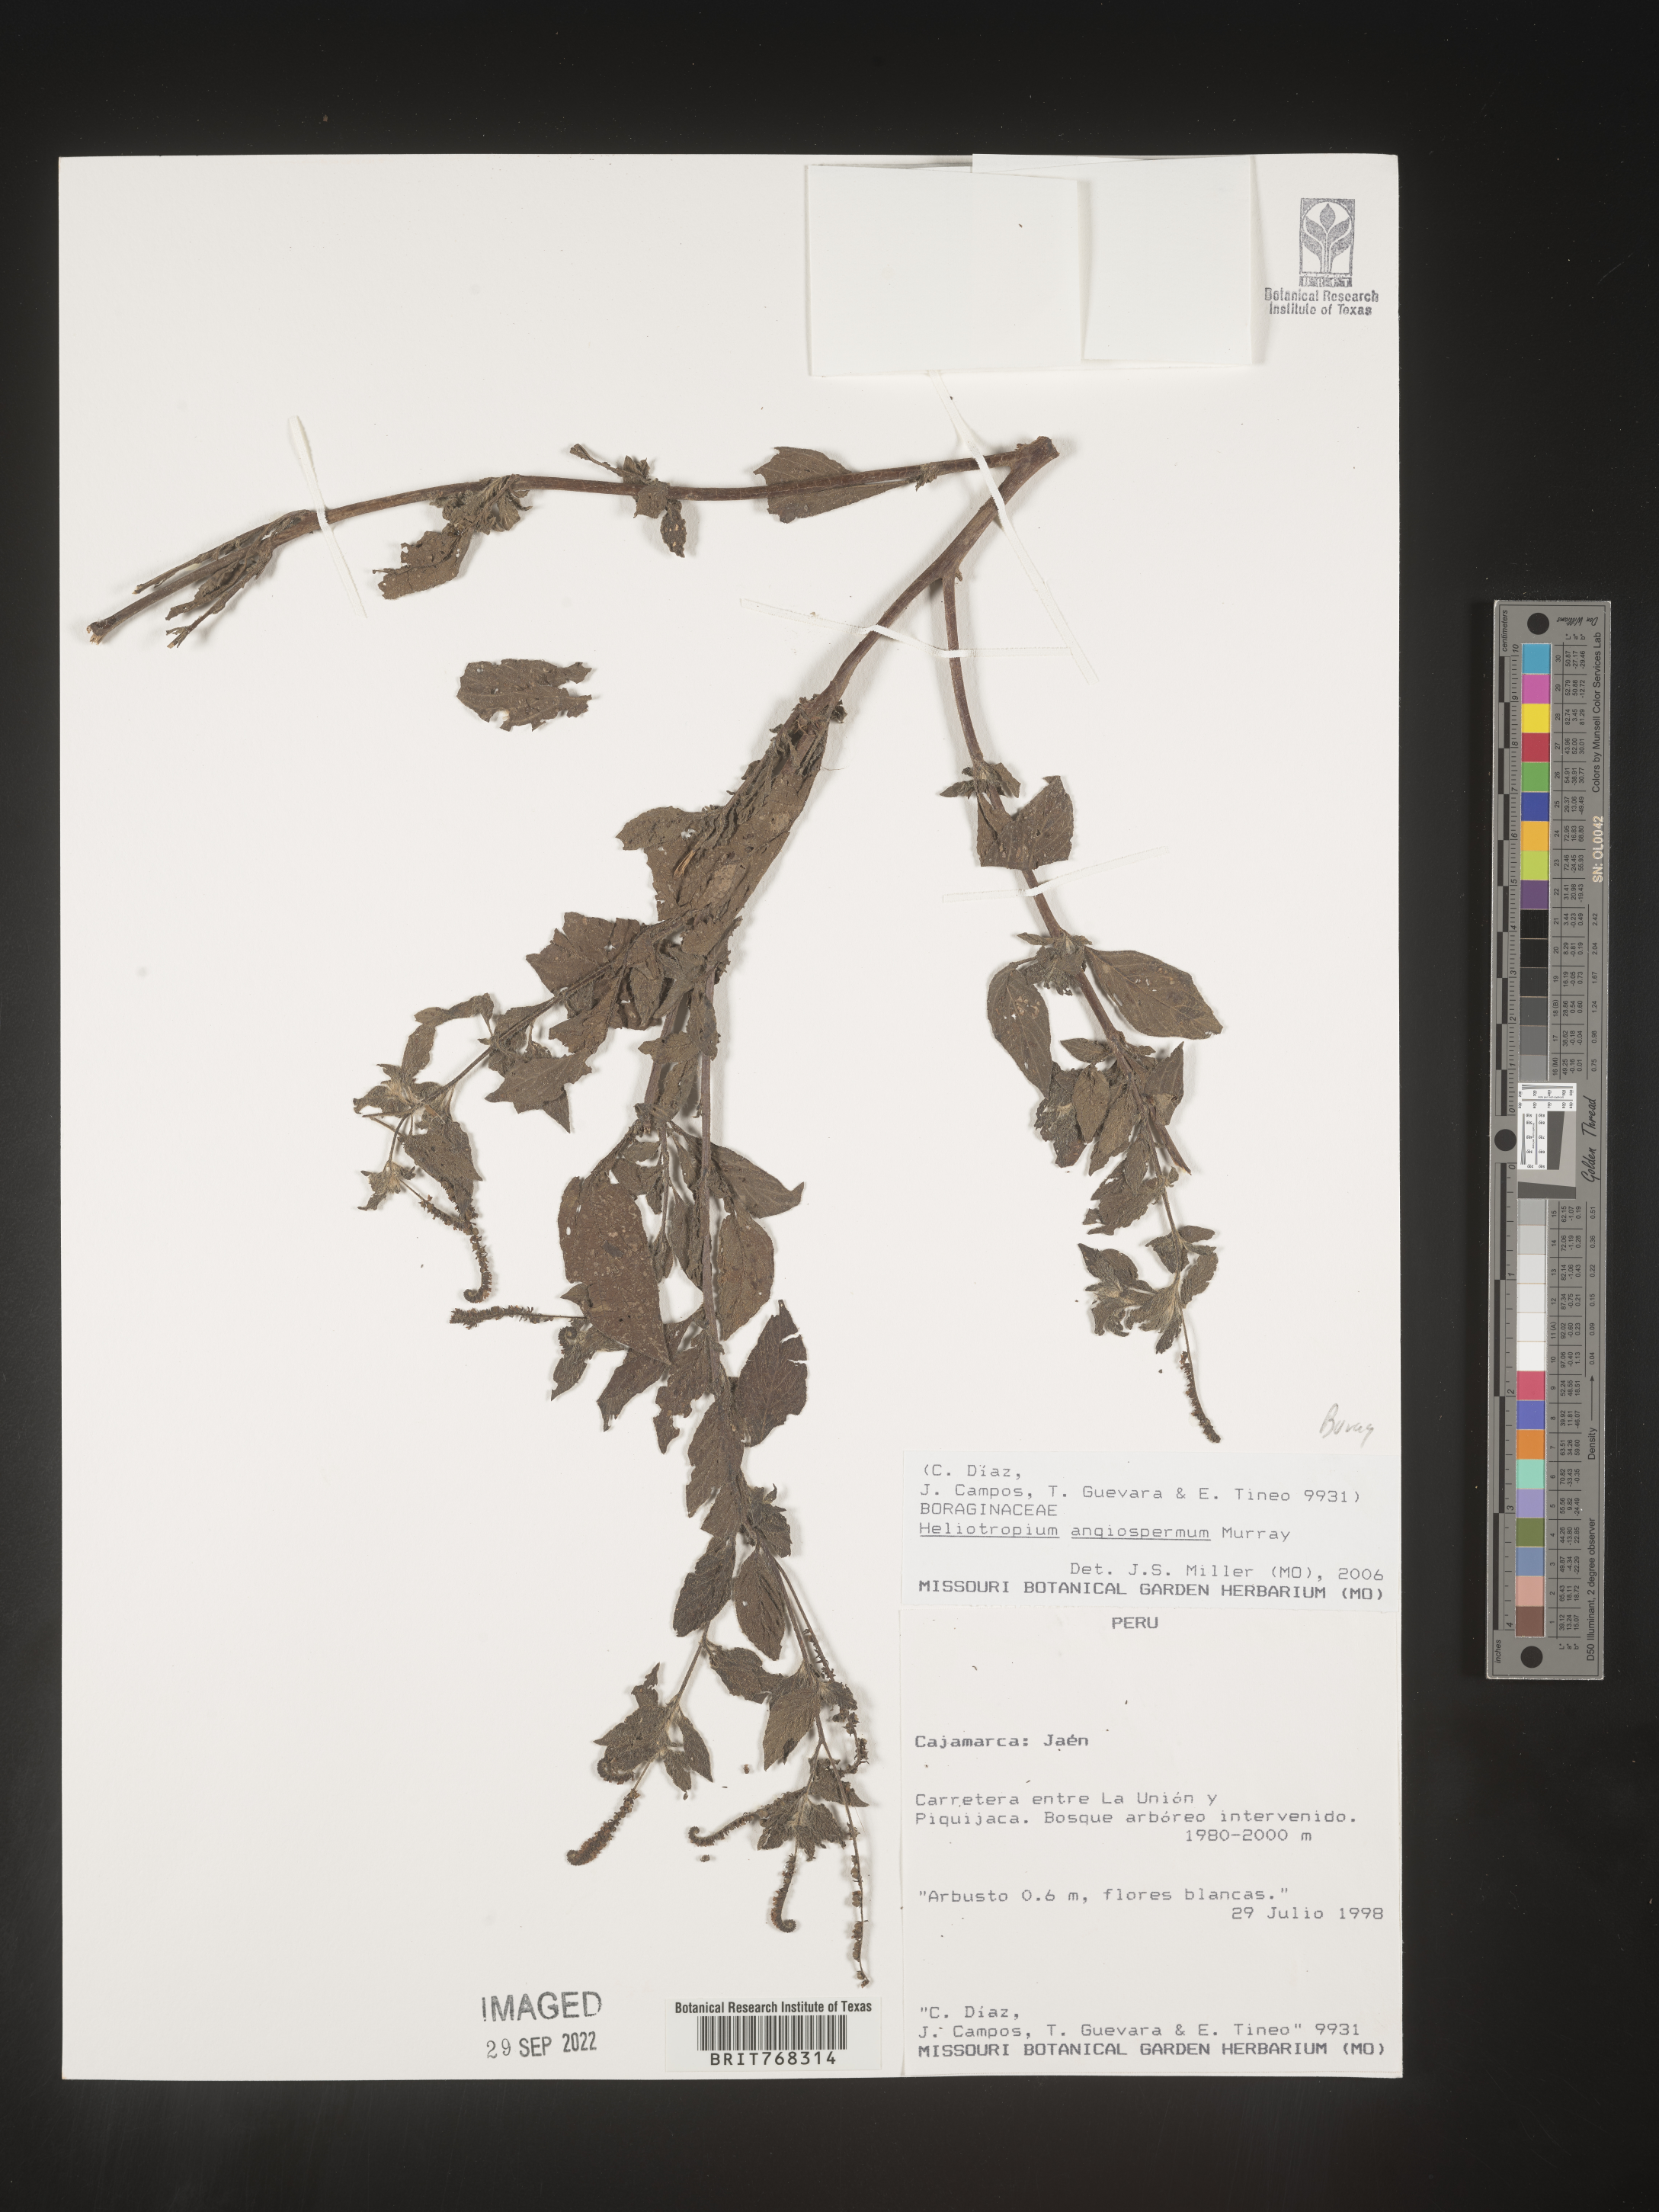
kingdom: Plantae
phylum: Tracheophyta
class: Magnoliopsida
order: Boraginales
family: Heliotropiaceae
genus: Heliotropium
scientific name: Heliotropium
